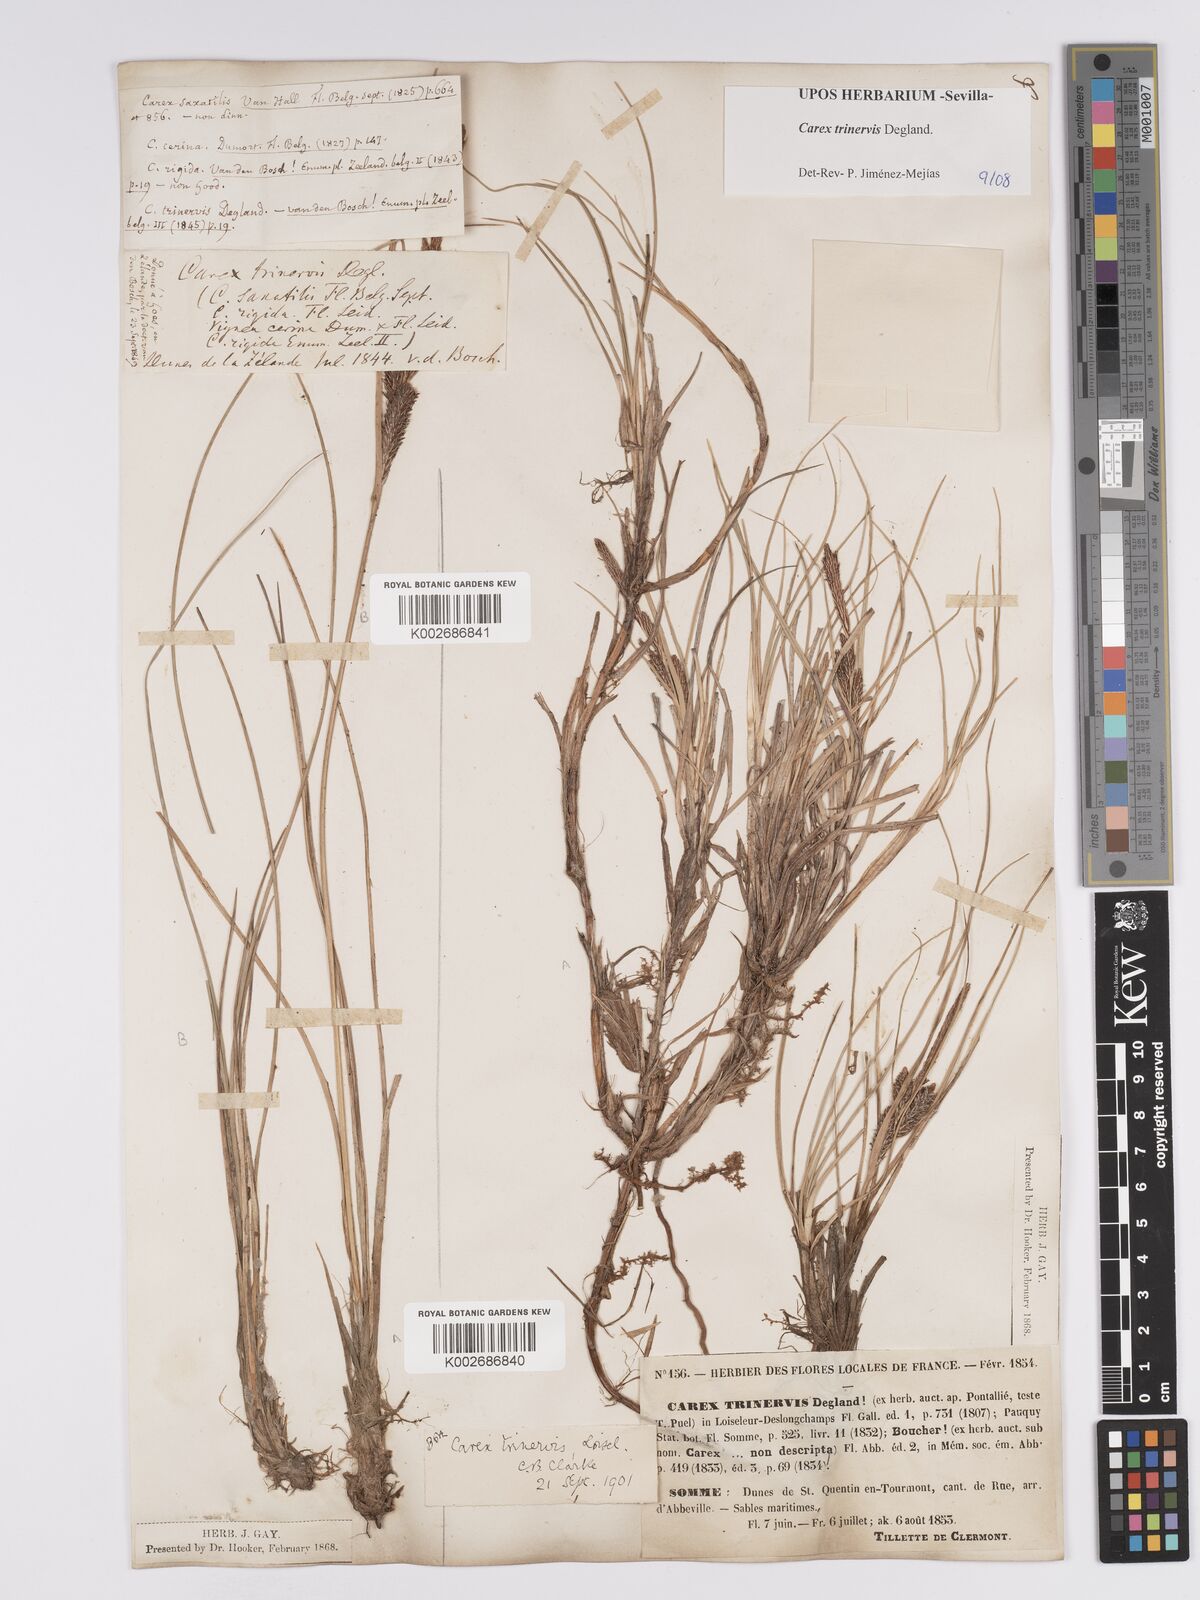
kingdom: Plantae
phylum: Tracheophyta
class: Liliopsida
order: Poales
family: Cyperaceae
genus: Carex
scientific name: Carex trinervis
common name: Three-nerved sedge
